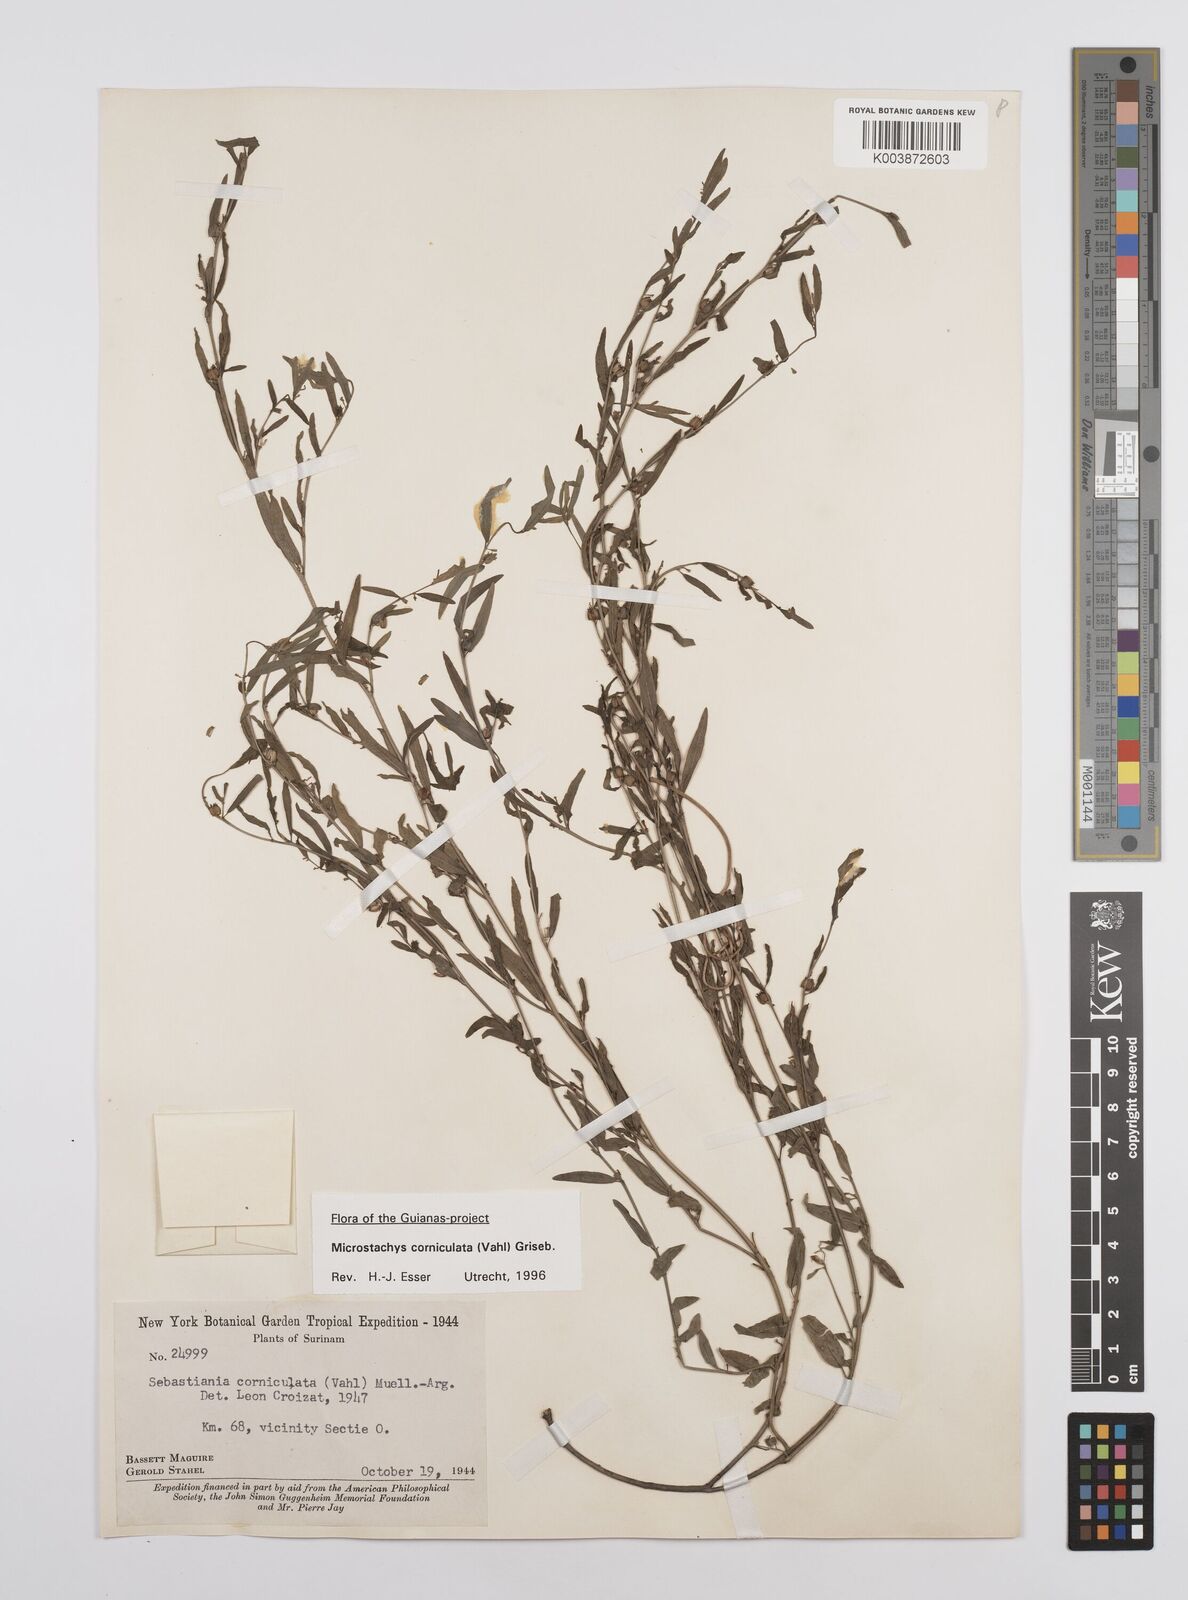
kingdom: Plantae
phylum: Tracheophyta
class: Magnoliopsida
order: Malpighiales
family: Euphorbiaceae
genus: Microstachys
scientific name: Microstachys corniculata
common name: Hato tejas
